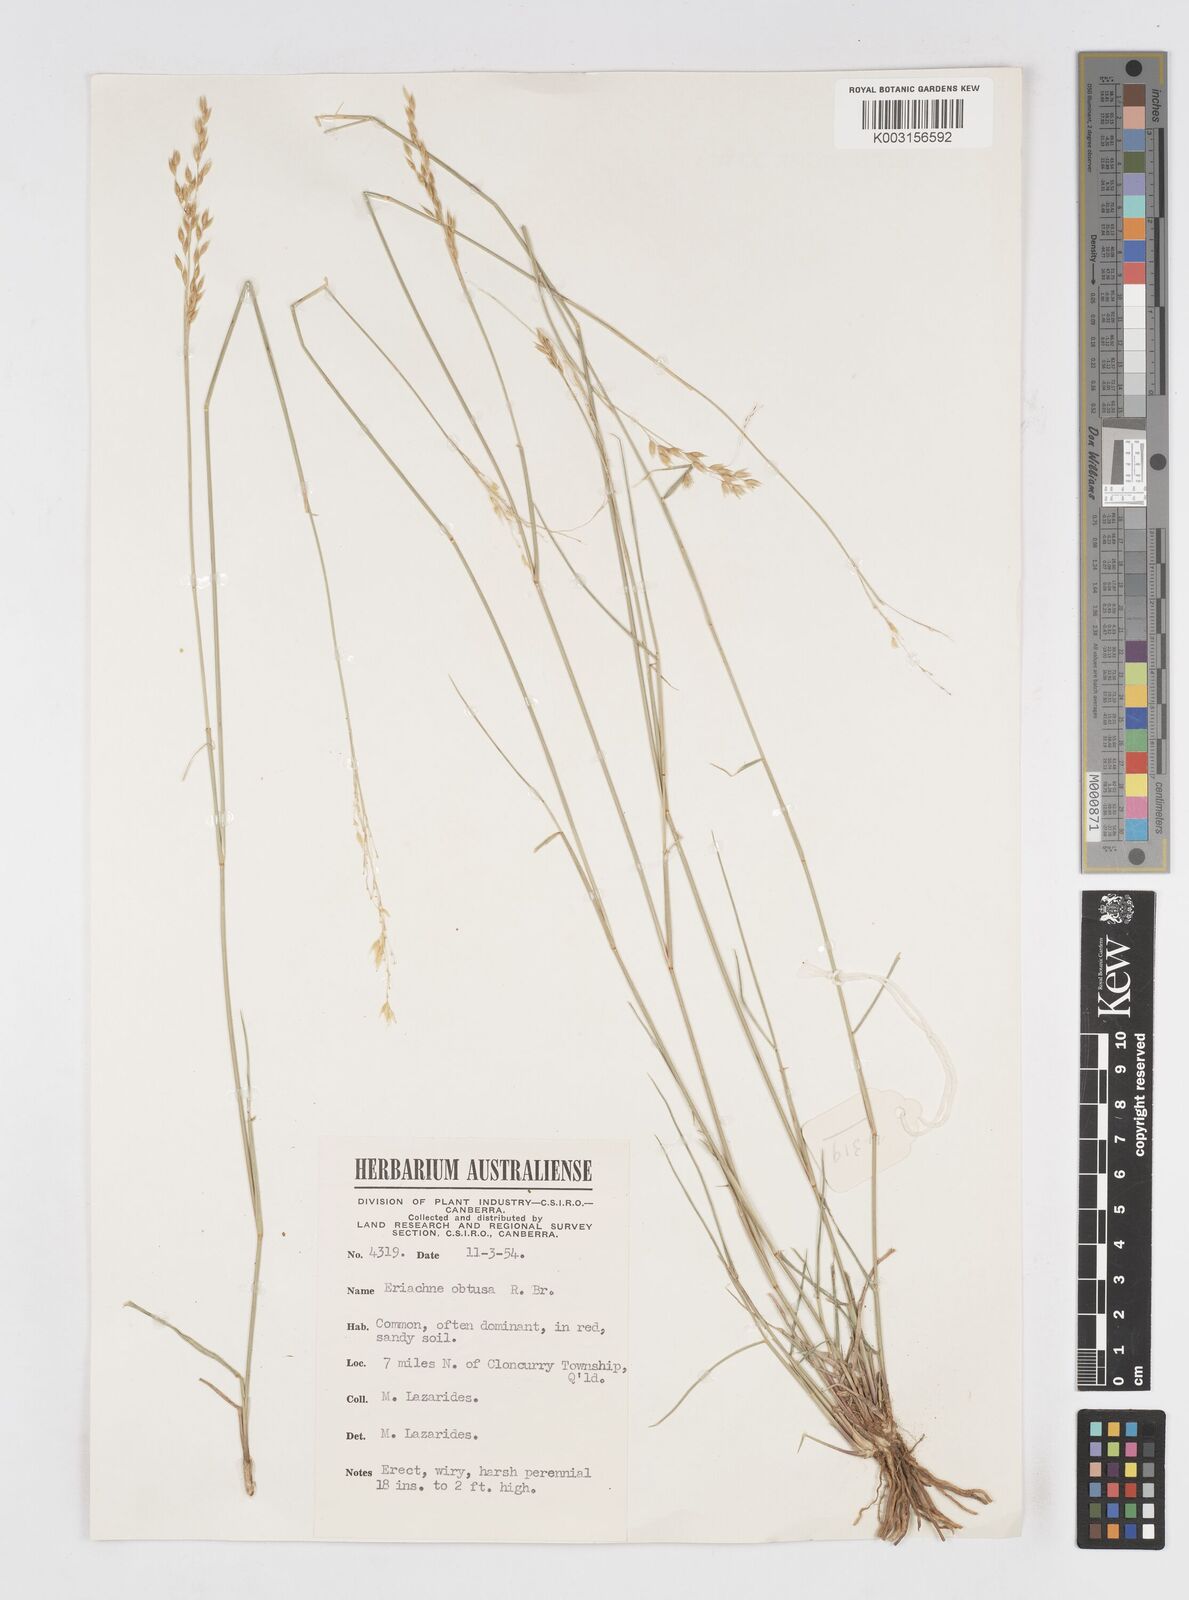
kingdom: Plantae
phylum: Tracheophyta
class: Liliopsida
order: Poales
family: Poaceae
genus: Eriachne
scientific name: Eriachne obtusa
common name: Northern wanderrie grass
